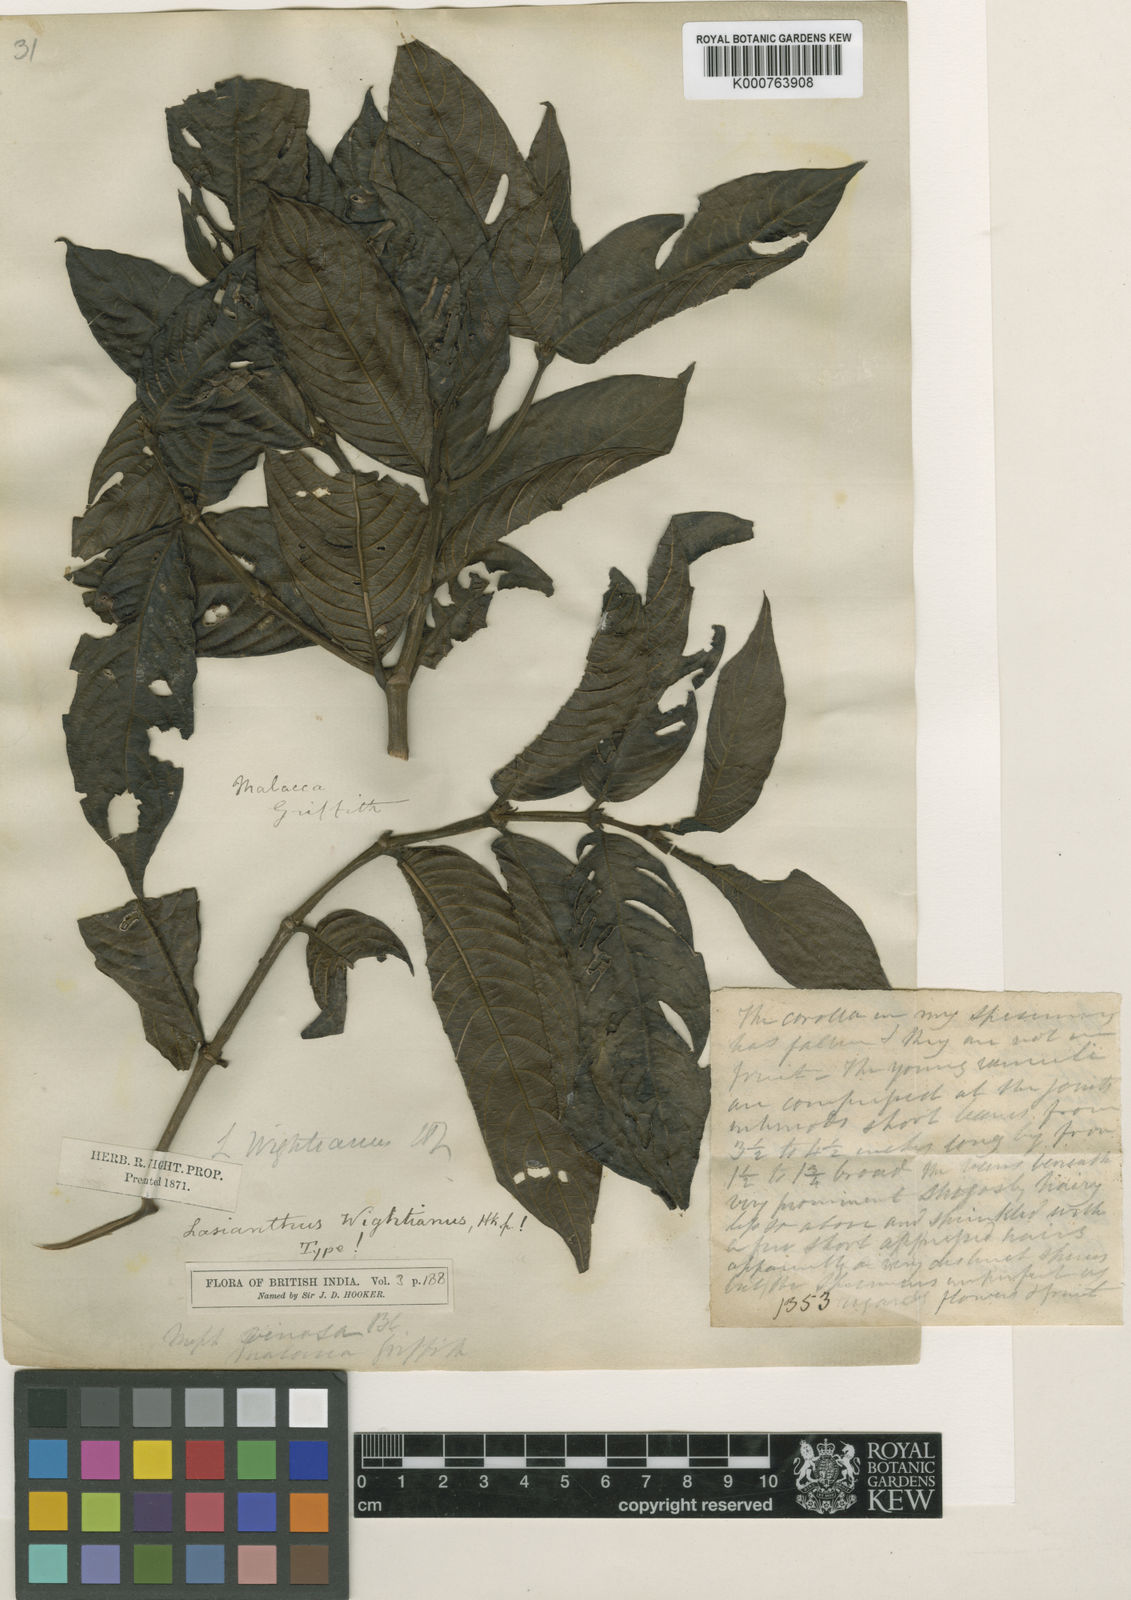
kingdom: Plantae
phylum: Tracheophyta
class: Magnoliopsida
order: Gentianales
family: Rubiaceae
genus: Lasianthus
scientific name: Lasianthus wightianus
